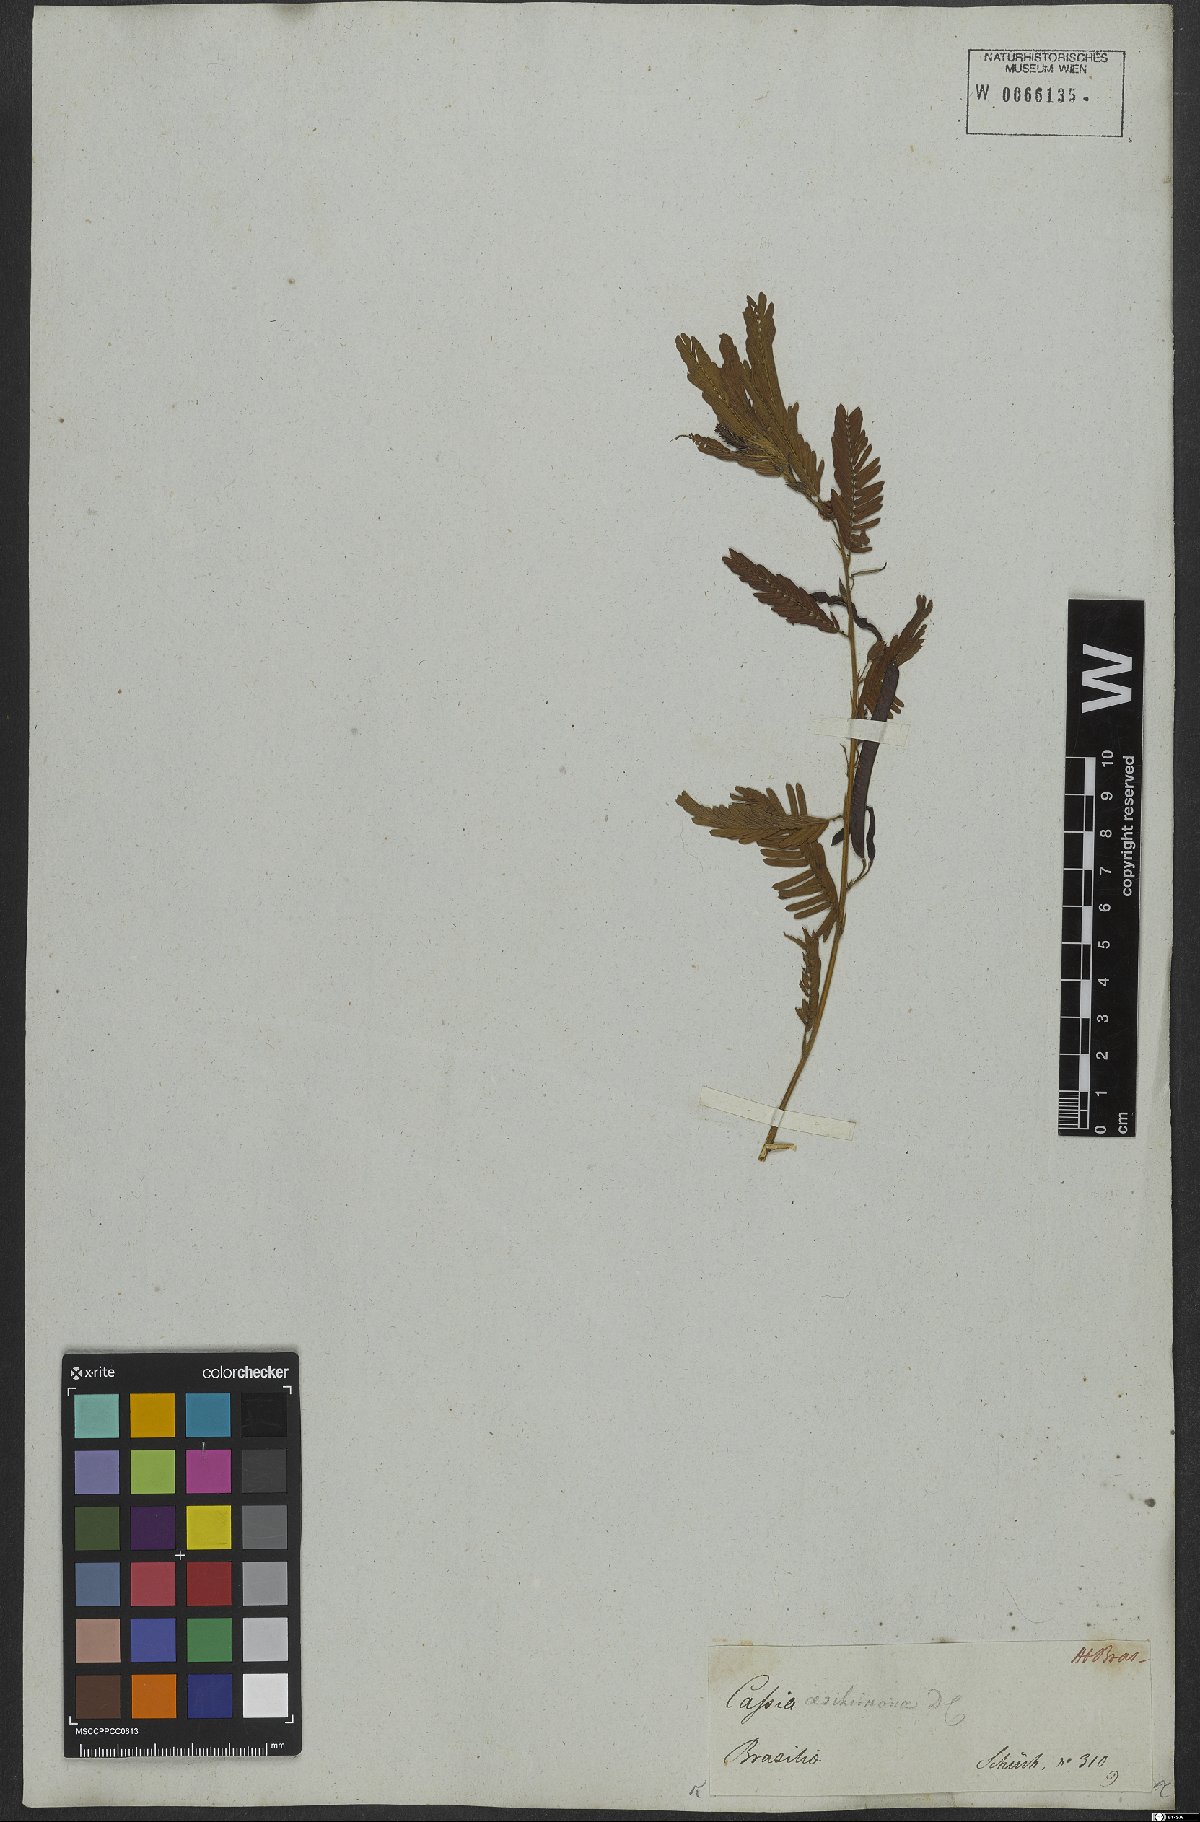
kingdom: Plantae
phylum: Tracheophyta
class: Magnoliopsida
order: Fabales
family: Fabaceae
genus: Chamaecrista
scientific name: Chamaecrista nictitans
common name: Sensitive cassia
